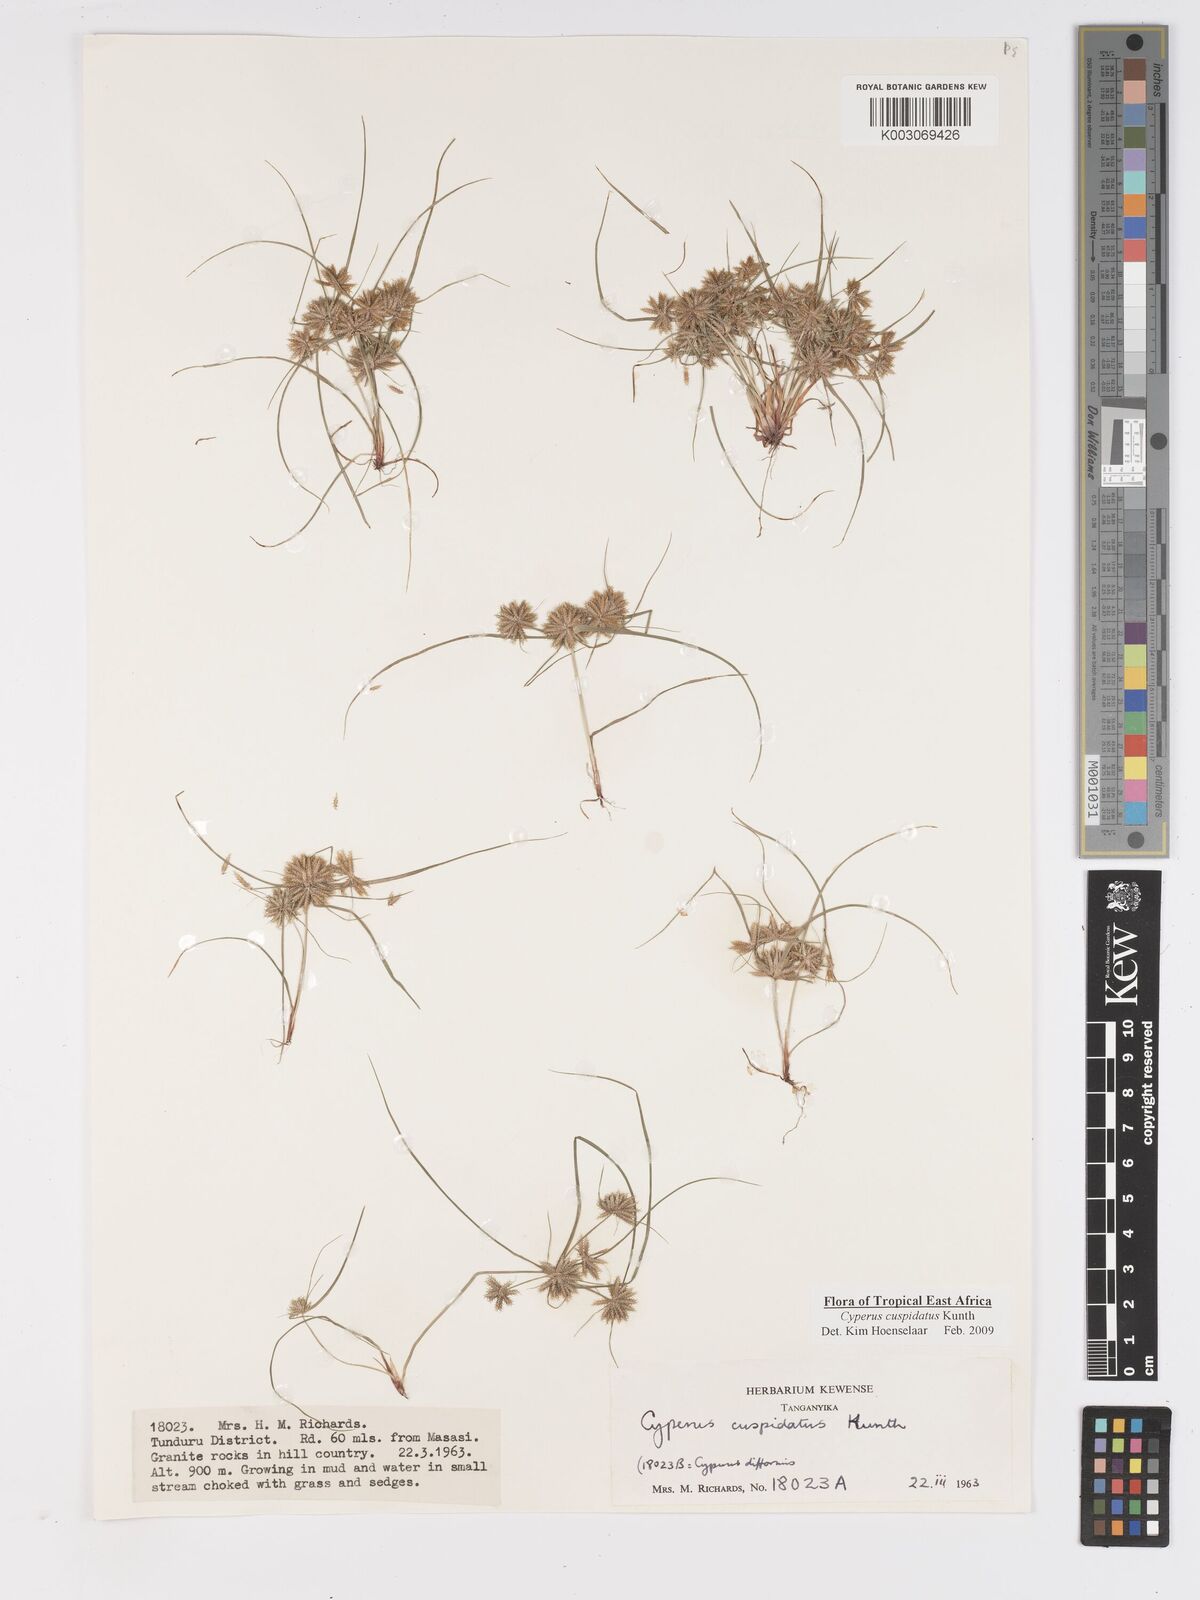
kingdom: Plantae
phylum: Tracheophyta
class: Liliopsida
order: Poales
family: Cyperaceae
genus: Cyperus
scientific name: Cyperus cuspidatus
